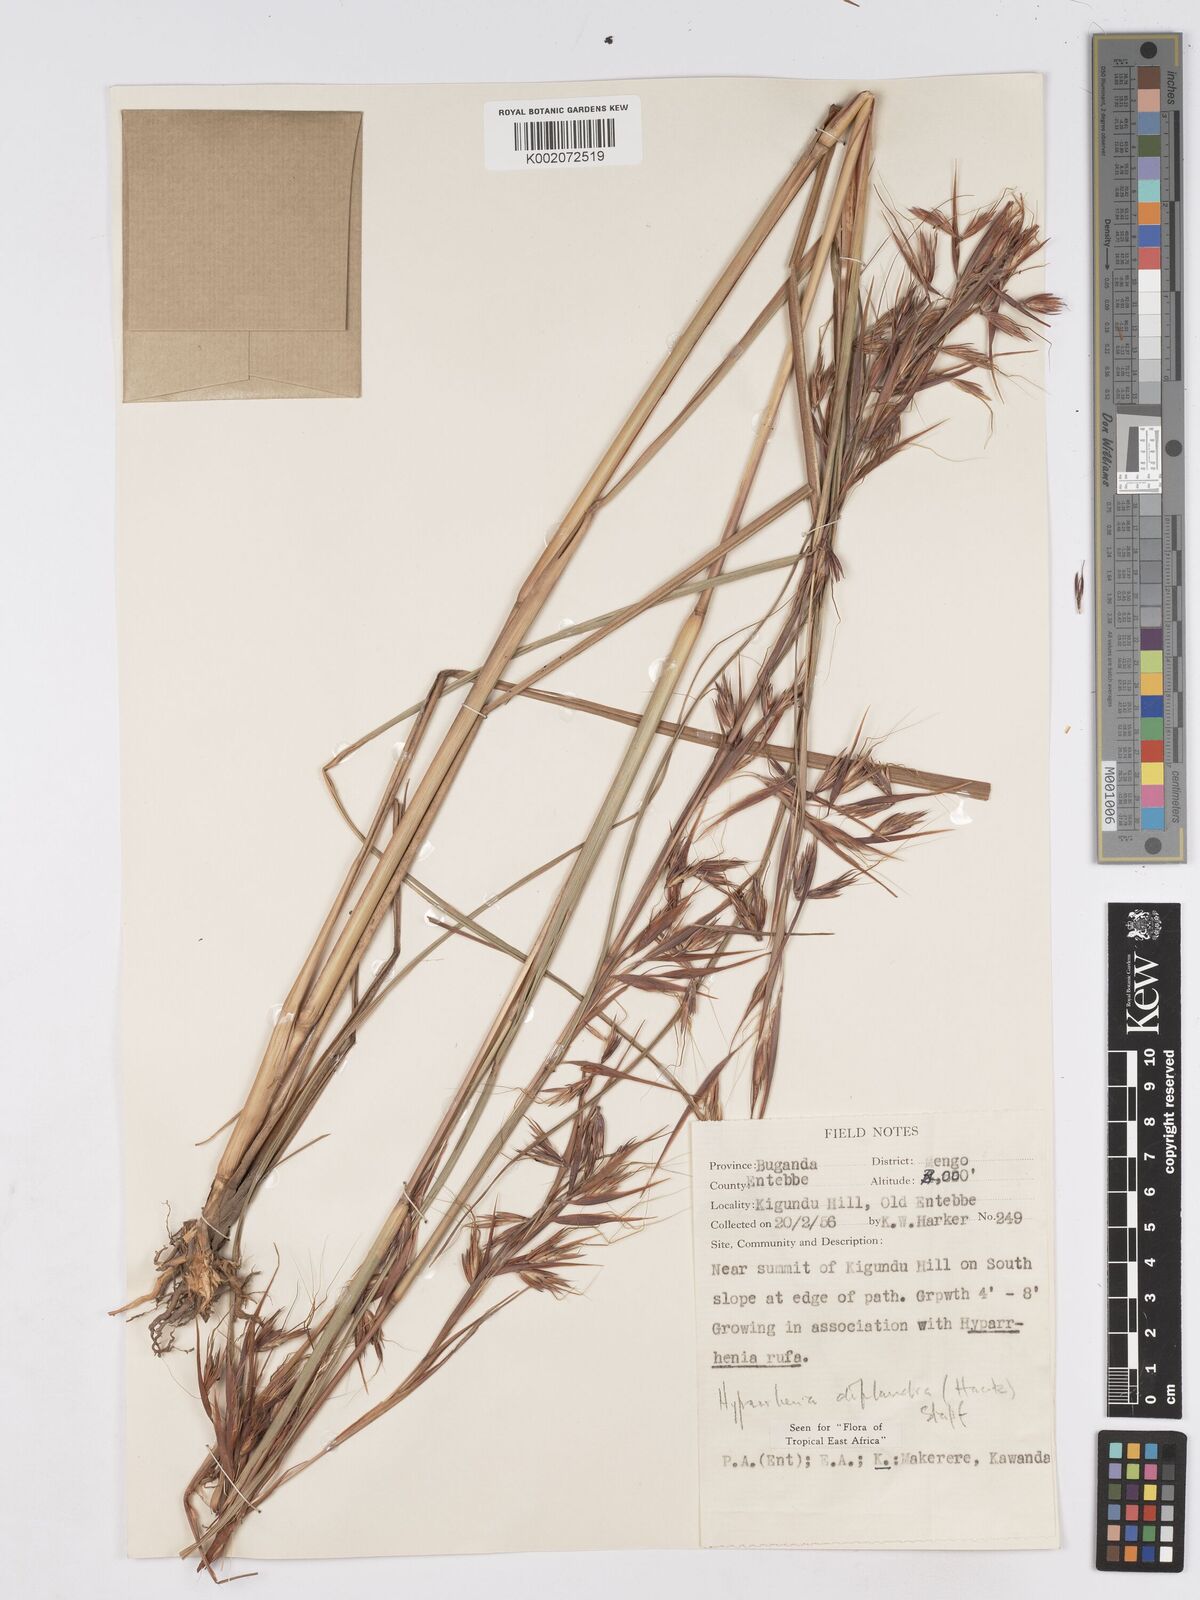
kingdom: Plantae
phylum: Tracheophyta
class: Liliopsida
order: Poales
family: Poaceae
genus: Hyparrhenia
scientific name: Hyparrhenia diplandra
